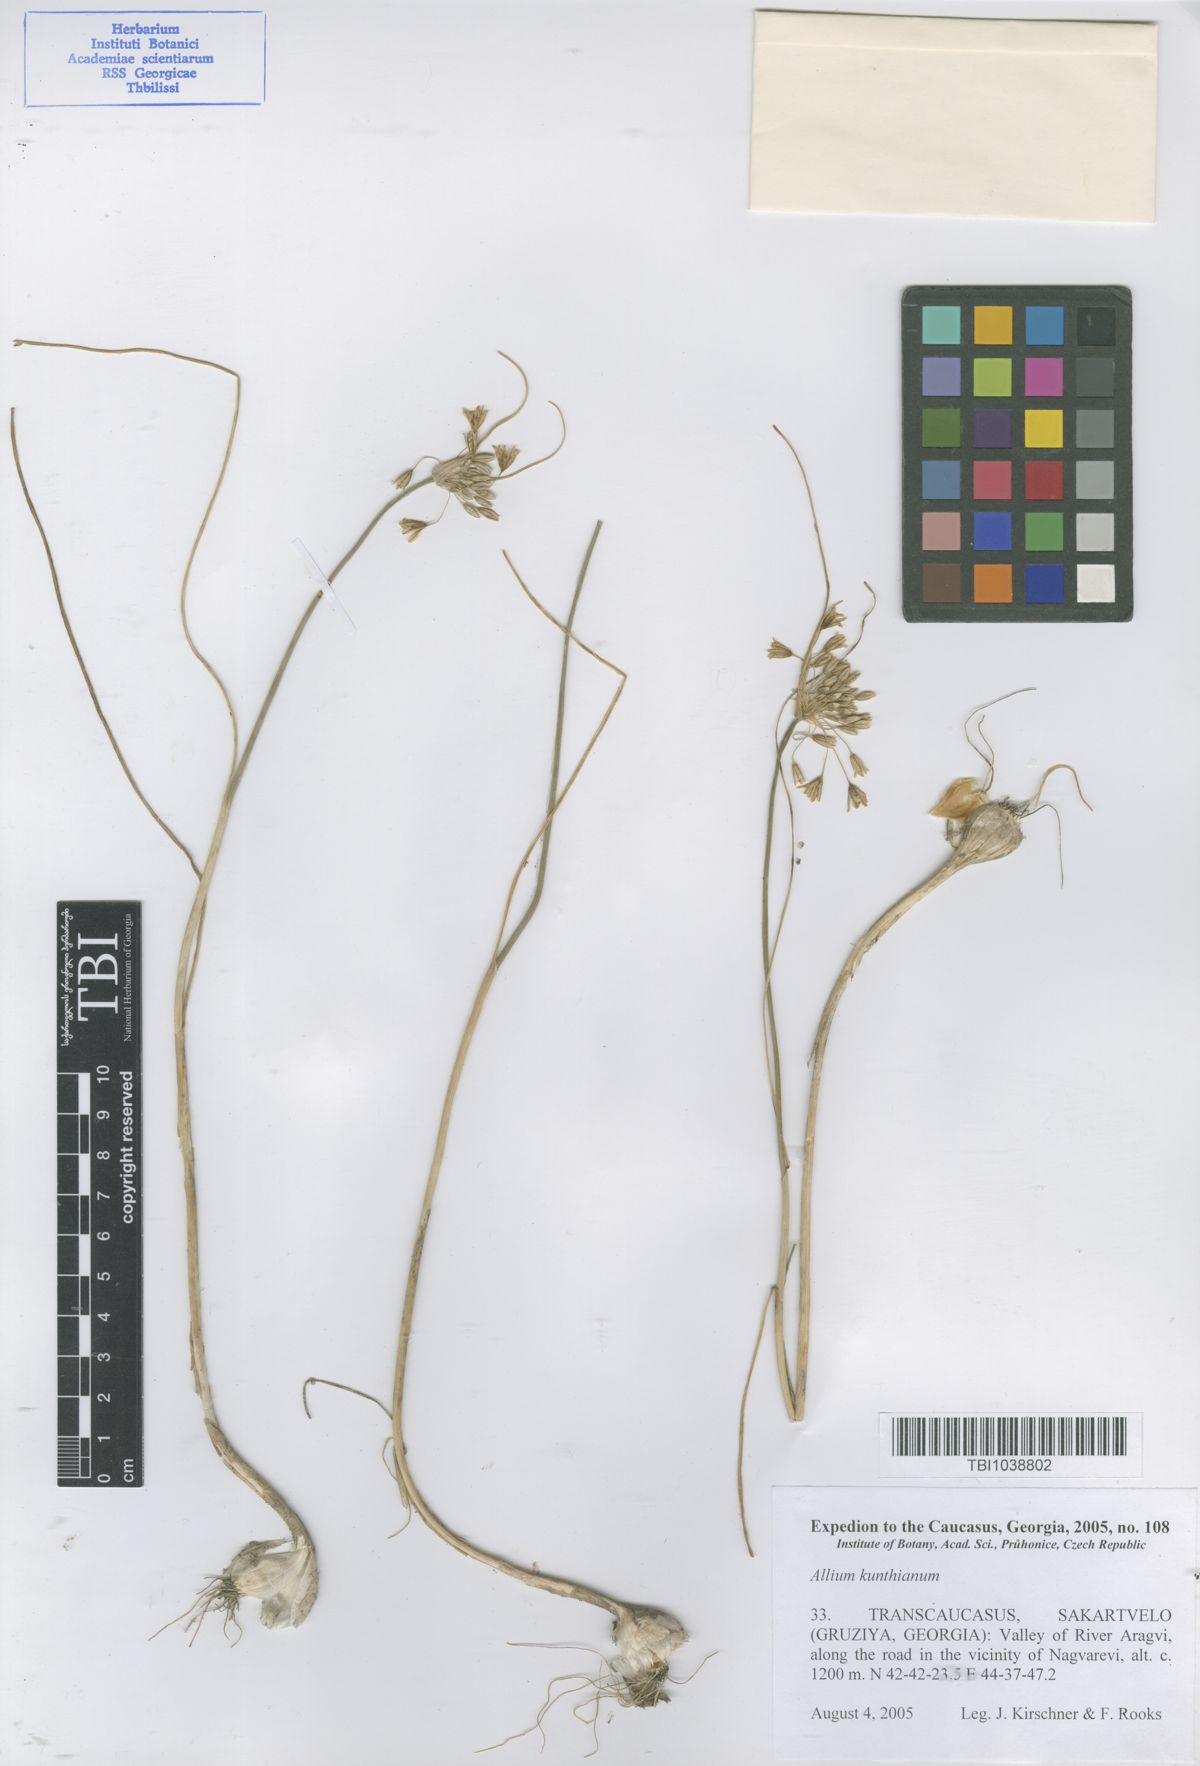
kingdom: Plantae
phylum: Tracheophyta
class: Liliopsida
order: Asparagales
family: Amaryllidaceae
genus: Allium
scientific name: Allium kunthianum
